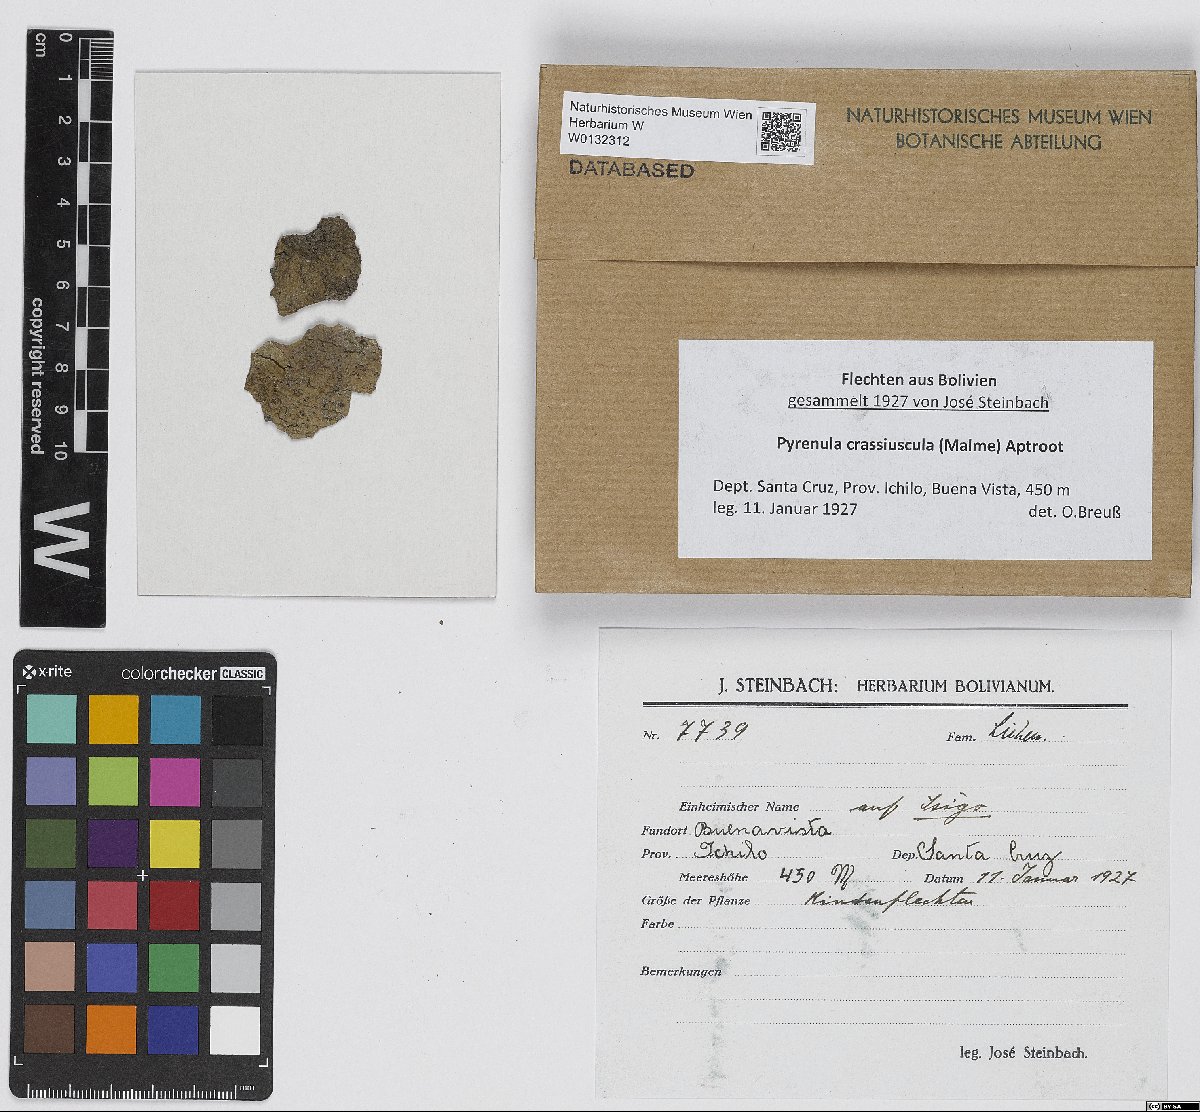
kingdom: Fungi
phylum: Ascomycota
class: Eurotiomycetes
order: Pyrenulales
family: Pyrenulaceae
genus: Pyrenula
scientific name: Pyrenula crassiuscula
